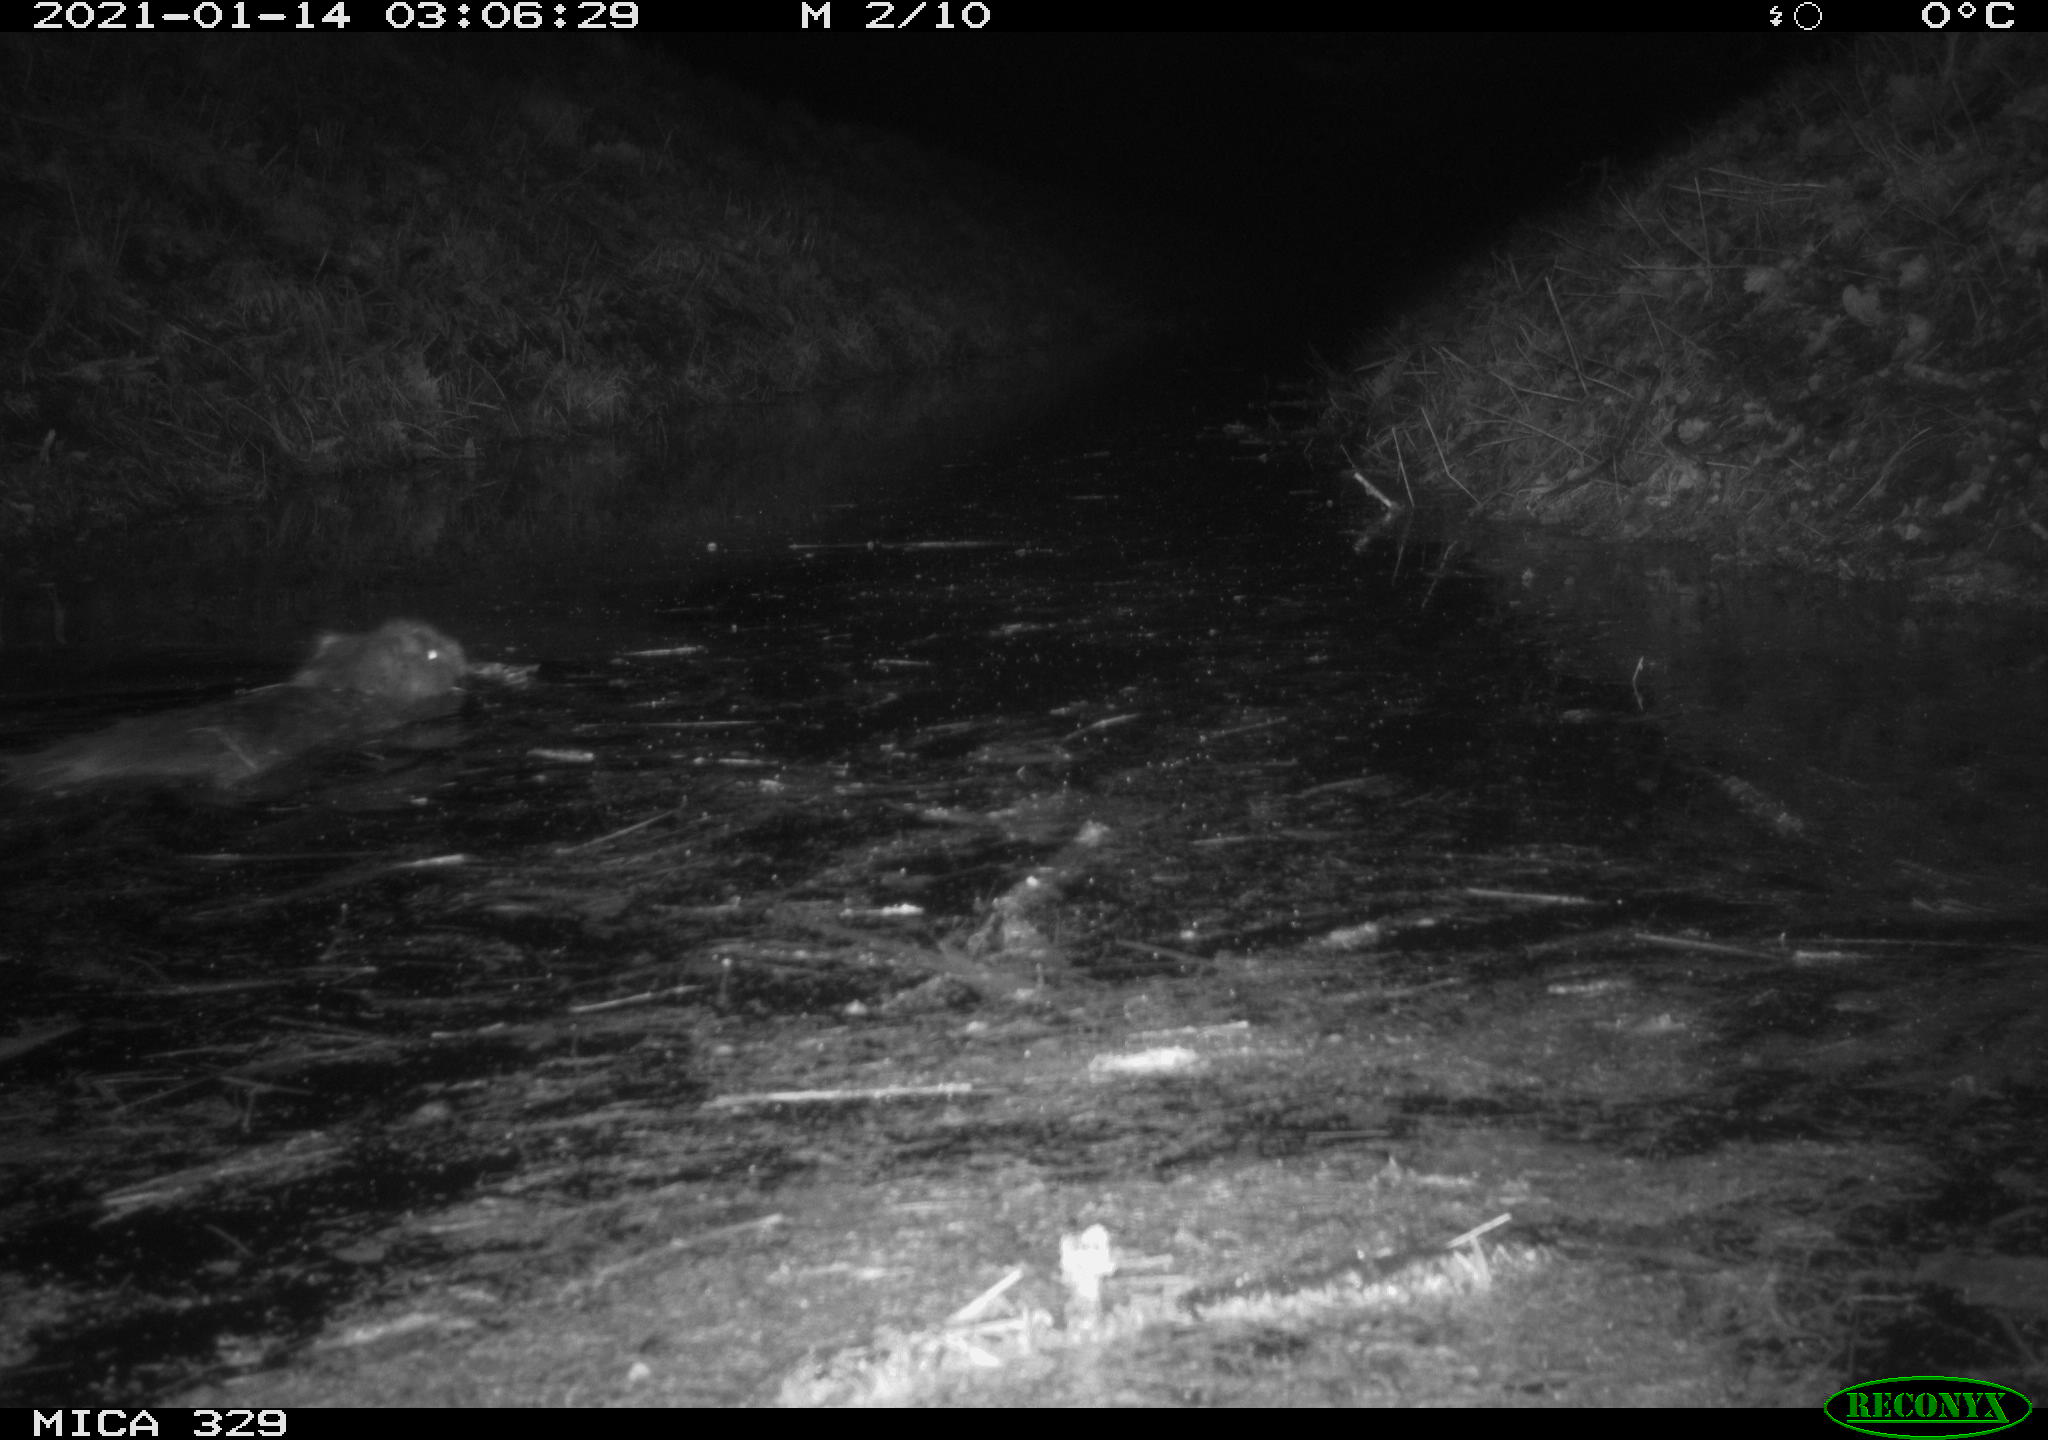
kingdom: Animalia
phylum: Chordata
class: Mammalia
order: Rodentia
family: Myocastoridae
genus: Myocastor
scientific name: Myocastor coypus
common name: Coypu
